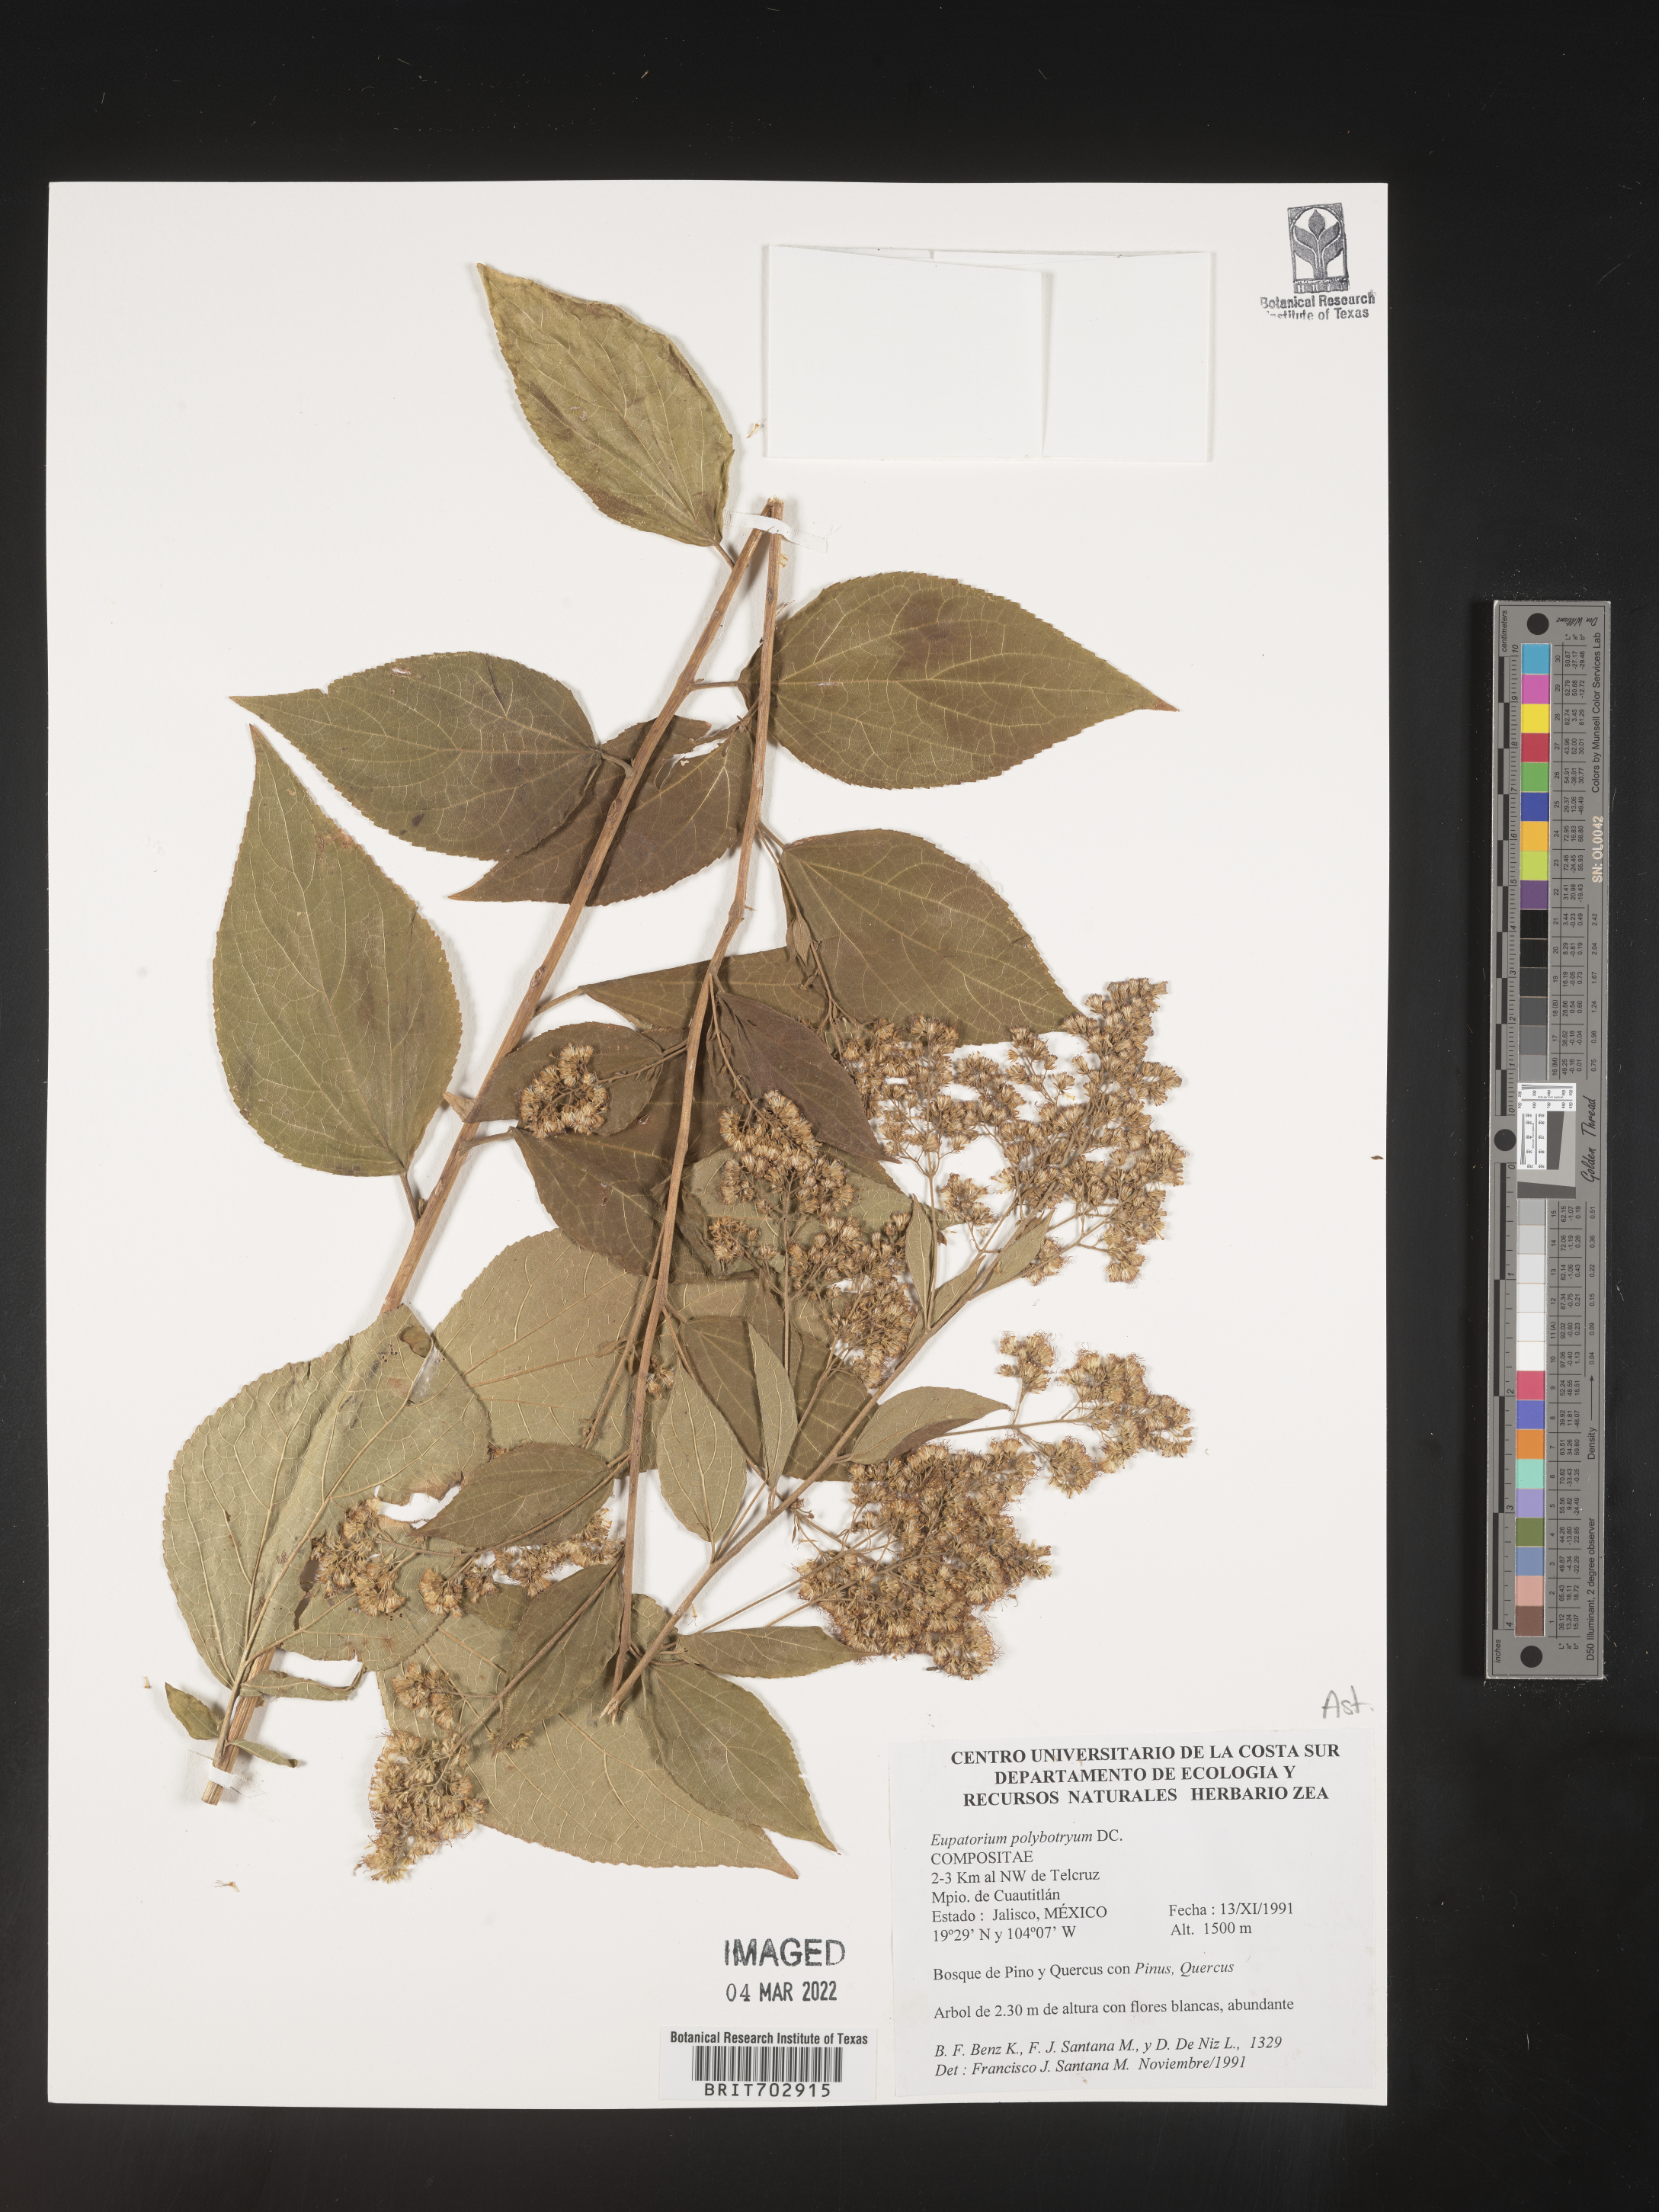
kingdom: Plantae
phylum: Tracheophyta
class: Magnoliopsida
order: Asterales
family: Asteraceae
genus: Eupatorium
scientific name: Eupatorium
